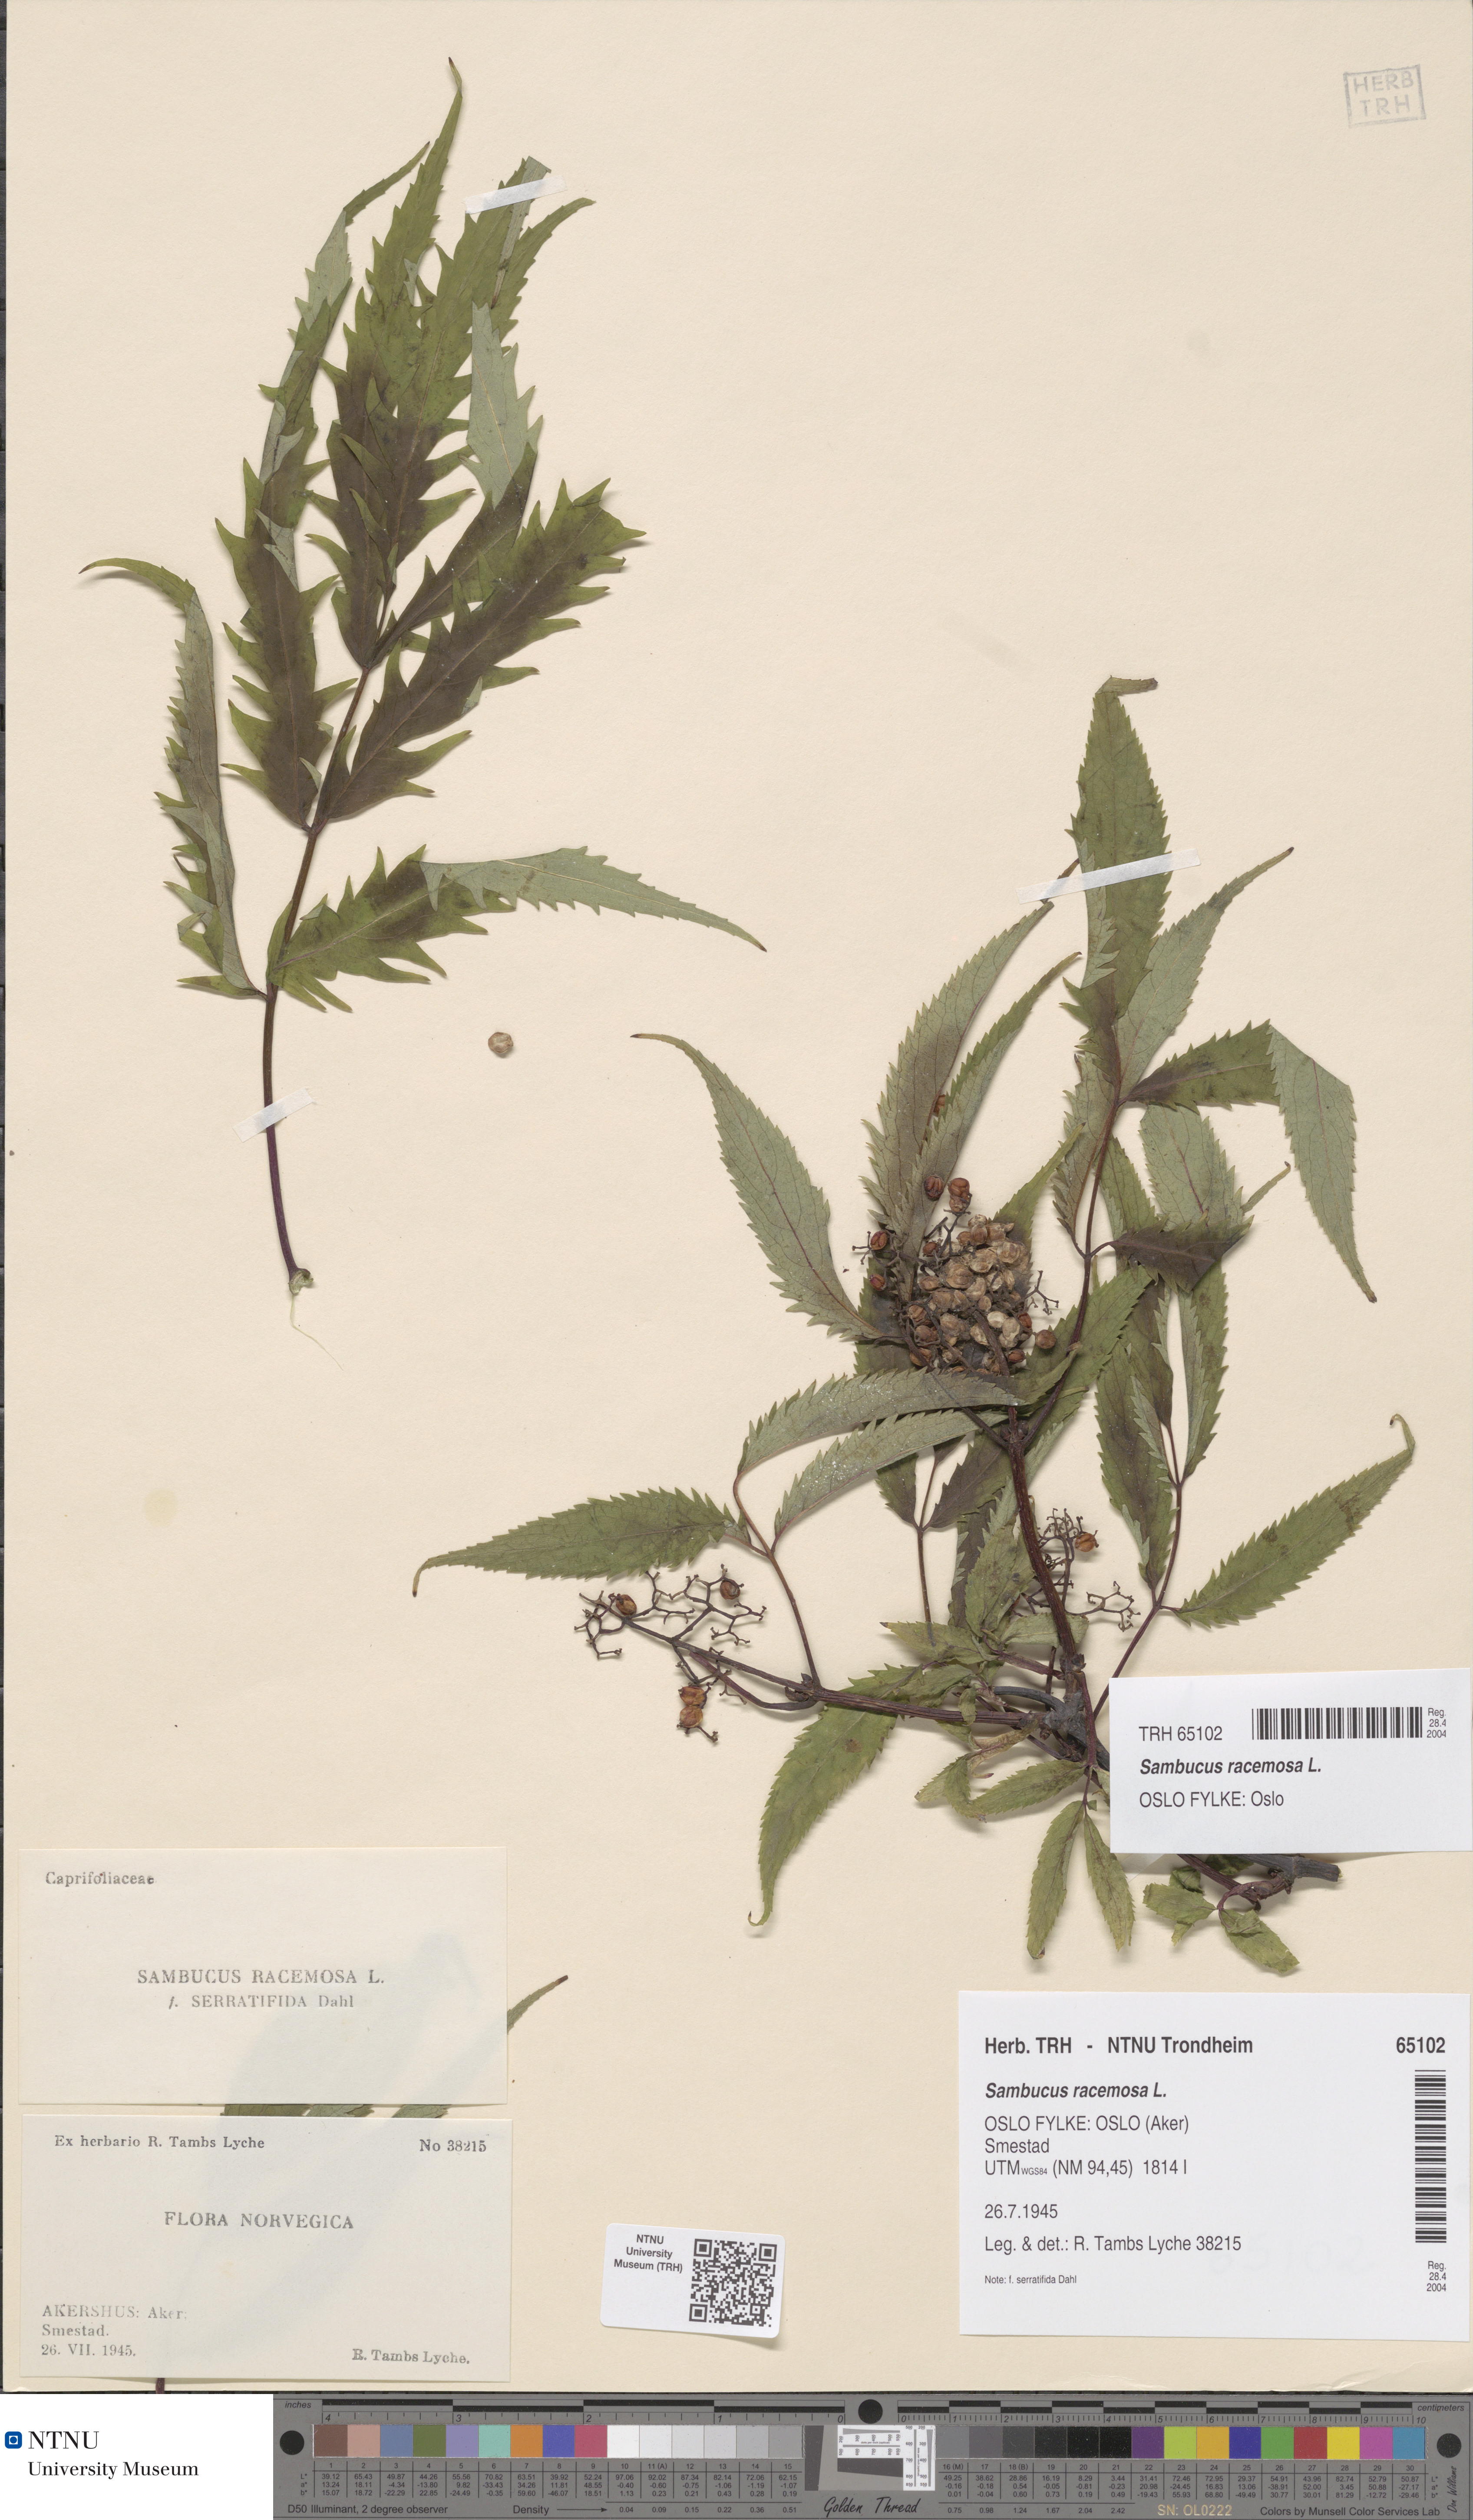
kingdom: Plantae
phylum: Tracheophyta
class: Magnoliopsida
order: Dipsacales
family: Viburnaceae
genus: Sambucus
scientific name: Sambucus racemosa
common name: Red-berried elder
